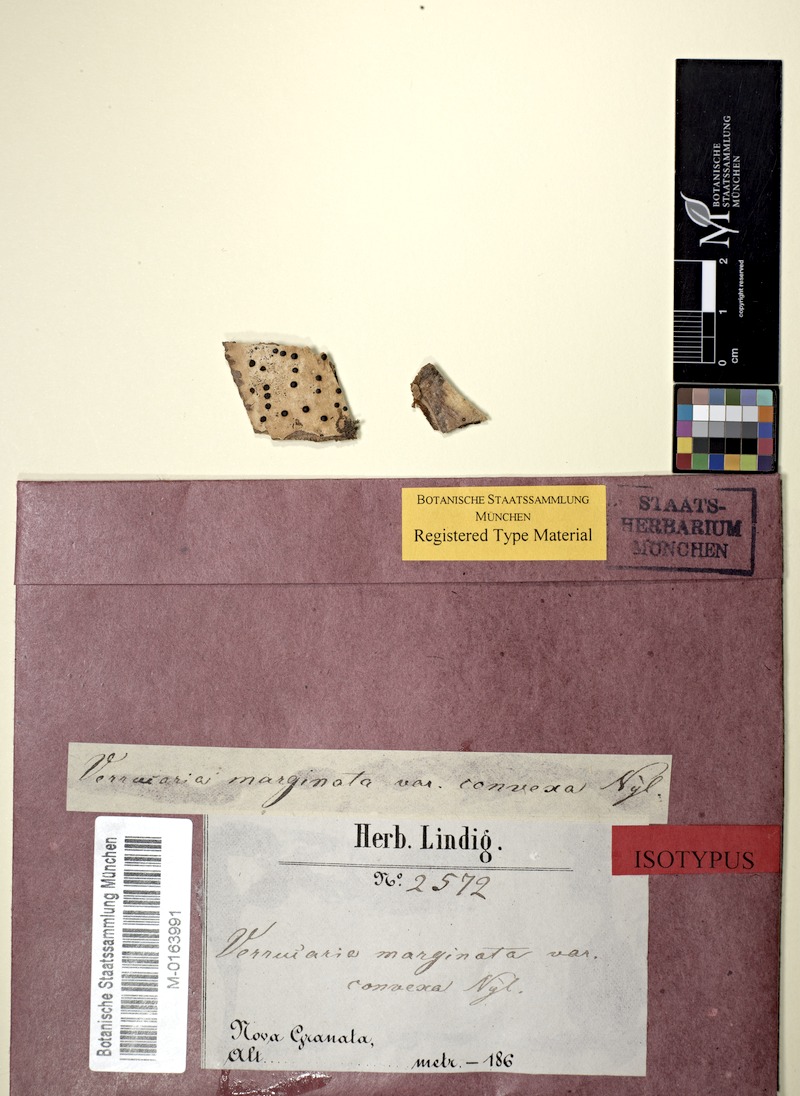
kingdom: Fungi
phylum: Ascomycota
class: Eurotiomycetes
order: Pyrenulales
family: Pyrenulaceae
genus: Pyrenula
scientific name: Pyrenula convexa
